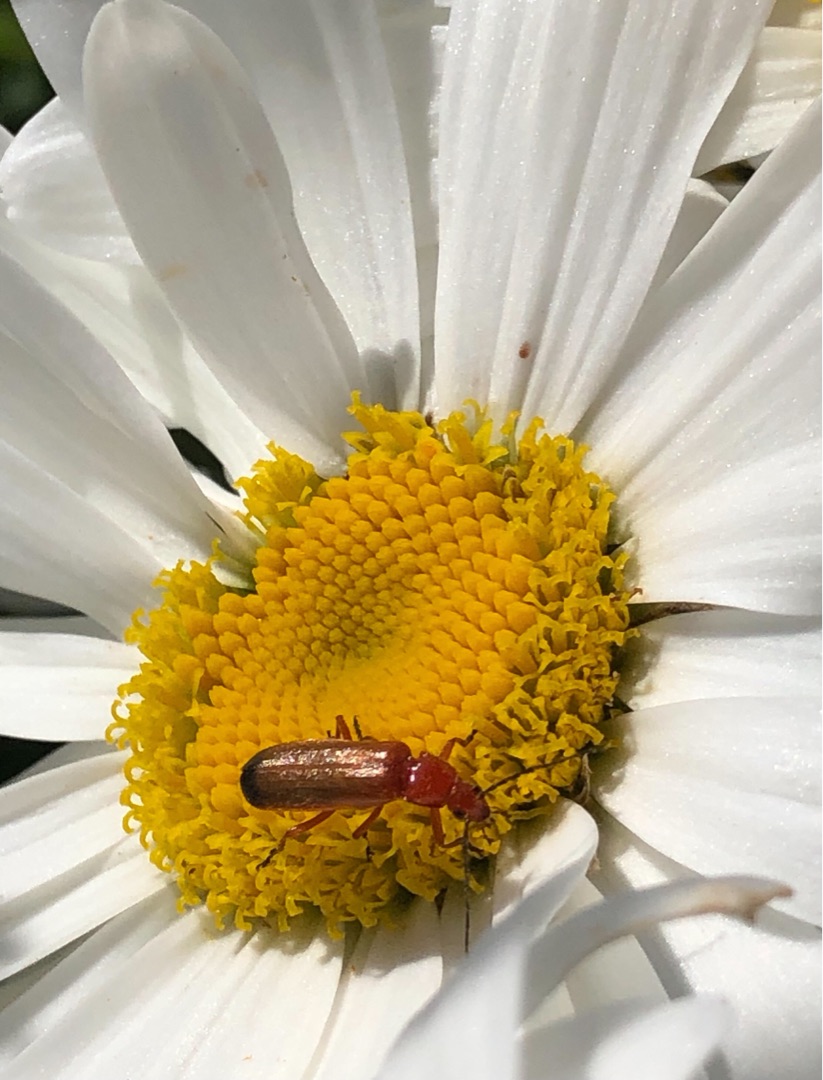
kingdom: Animalia
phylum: Arthropoda
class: Insecta
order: Coleoptera
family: Cantharidae
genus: Rhagonycha
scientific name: Rhagonycha fulva
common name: Præstebille
